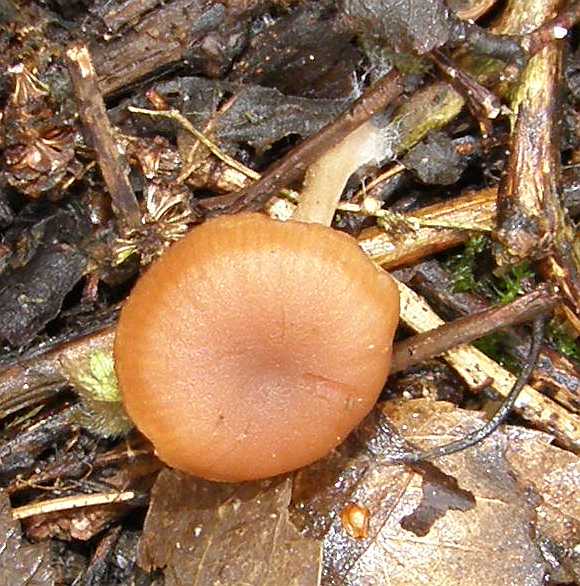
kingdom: Fungi
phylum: Basidiomycota
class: Agaricomycetes
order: Agaricales
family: Tubariaceae
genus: Tubaria
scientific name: Tubaria furfuracea
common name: kliddet fnughat
